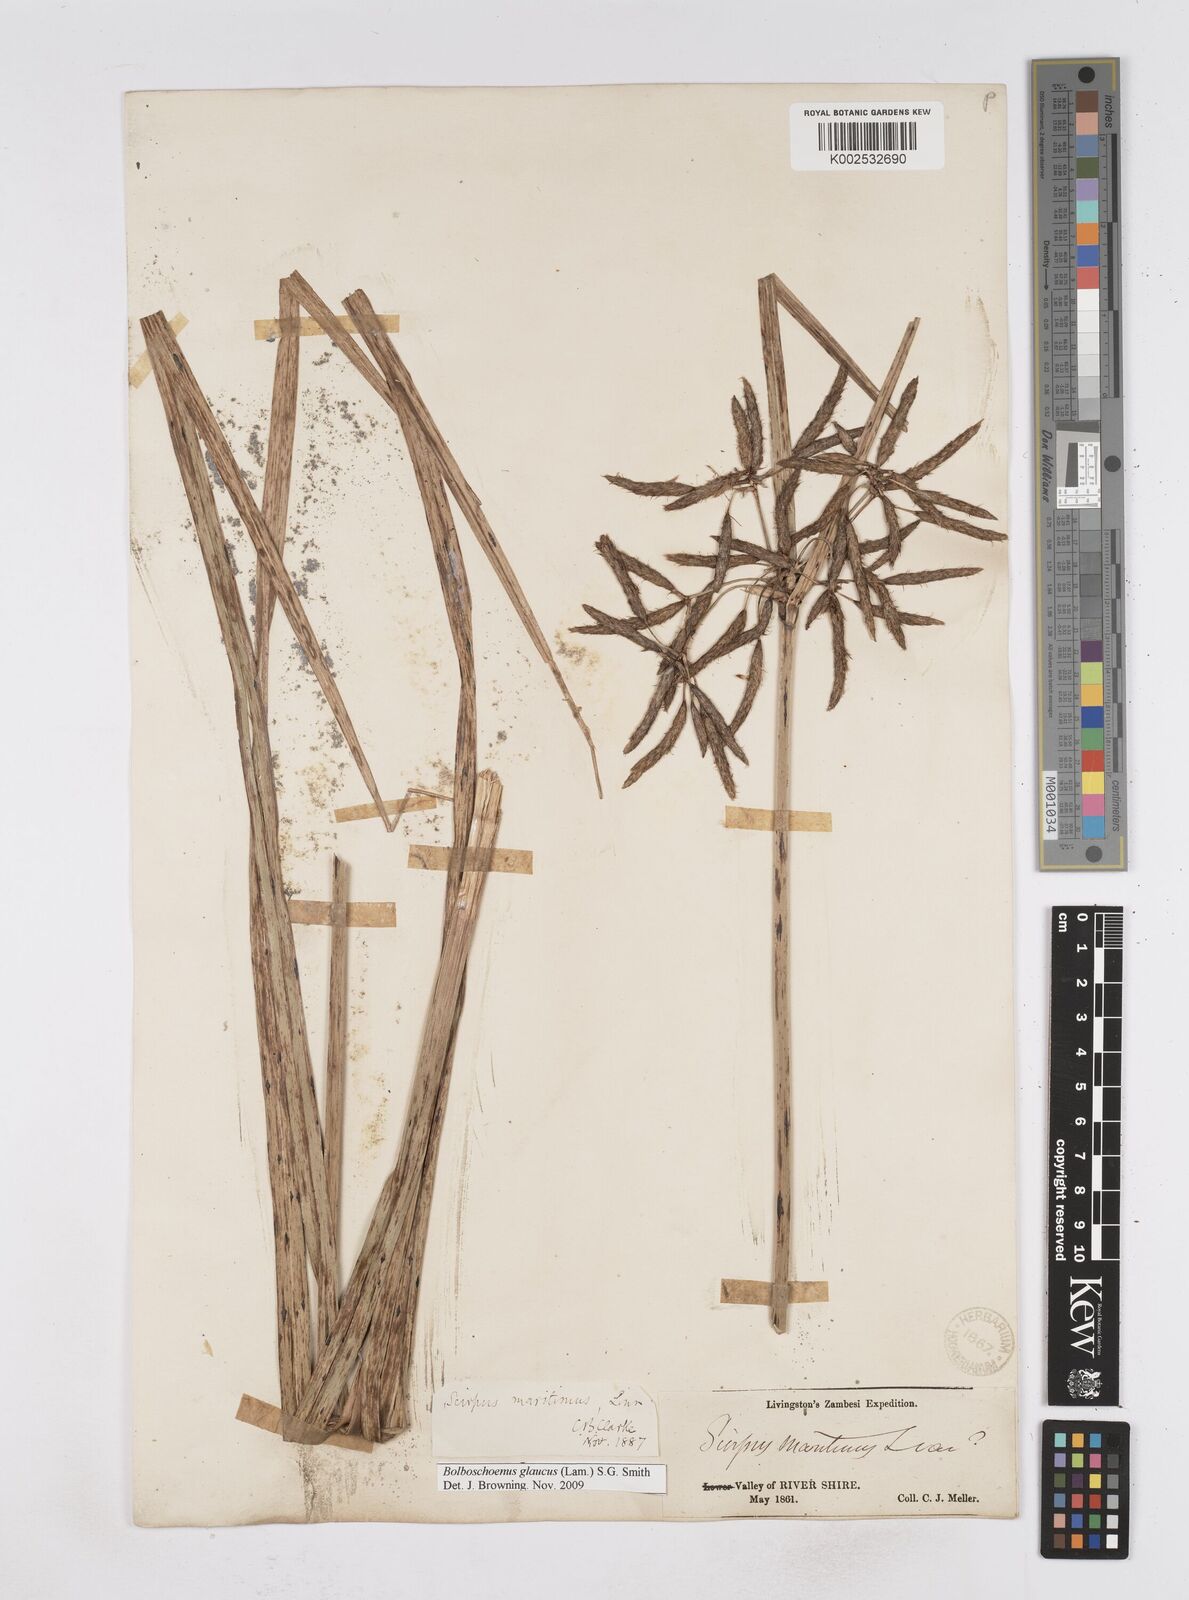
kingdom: Plantae
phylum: Tracheophyta
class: Liliopsida
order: Poales
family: Cyperaceae
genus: Bolboschoenus
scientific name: Bolboschoenus glaucus
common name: Tuberous bulrush
